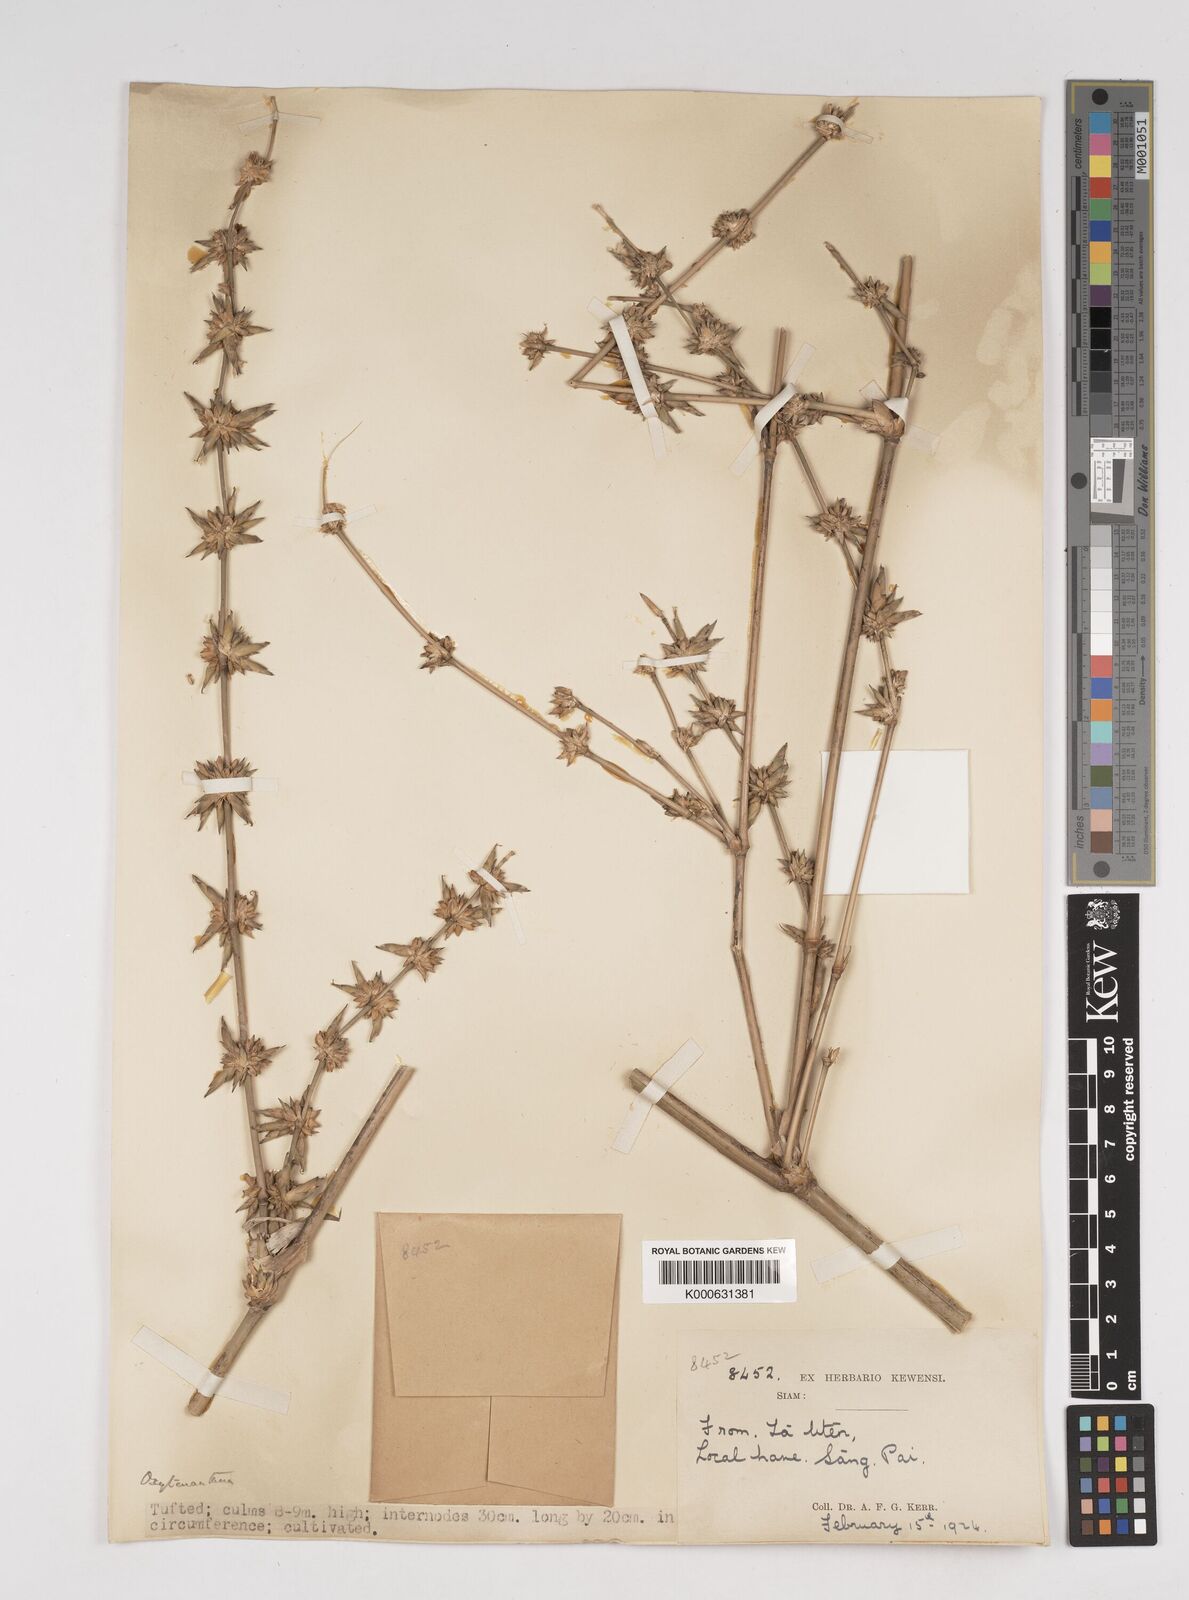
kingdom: Plantae
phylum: Tracheophyta
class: Liliopsida
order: Poales
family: Poaceae
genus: Dendrocalamus
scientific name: Dendrocalamus
